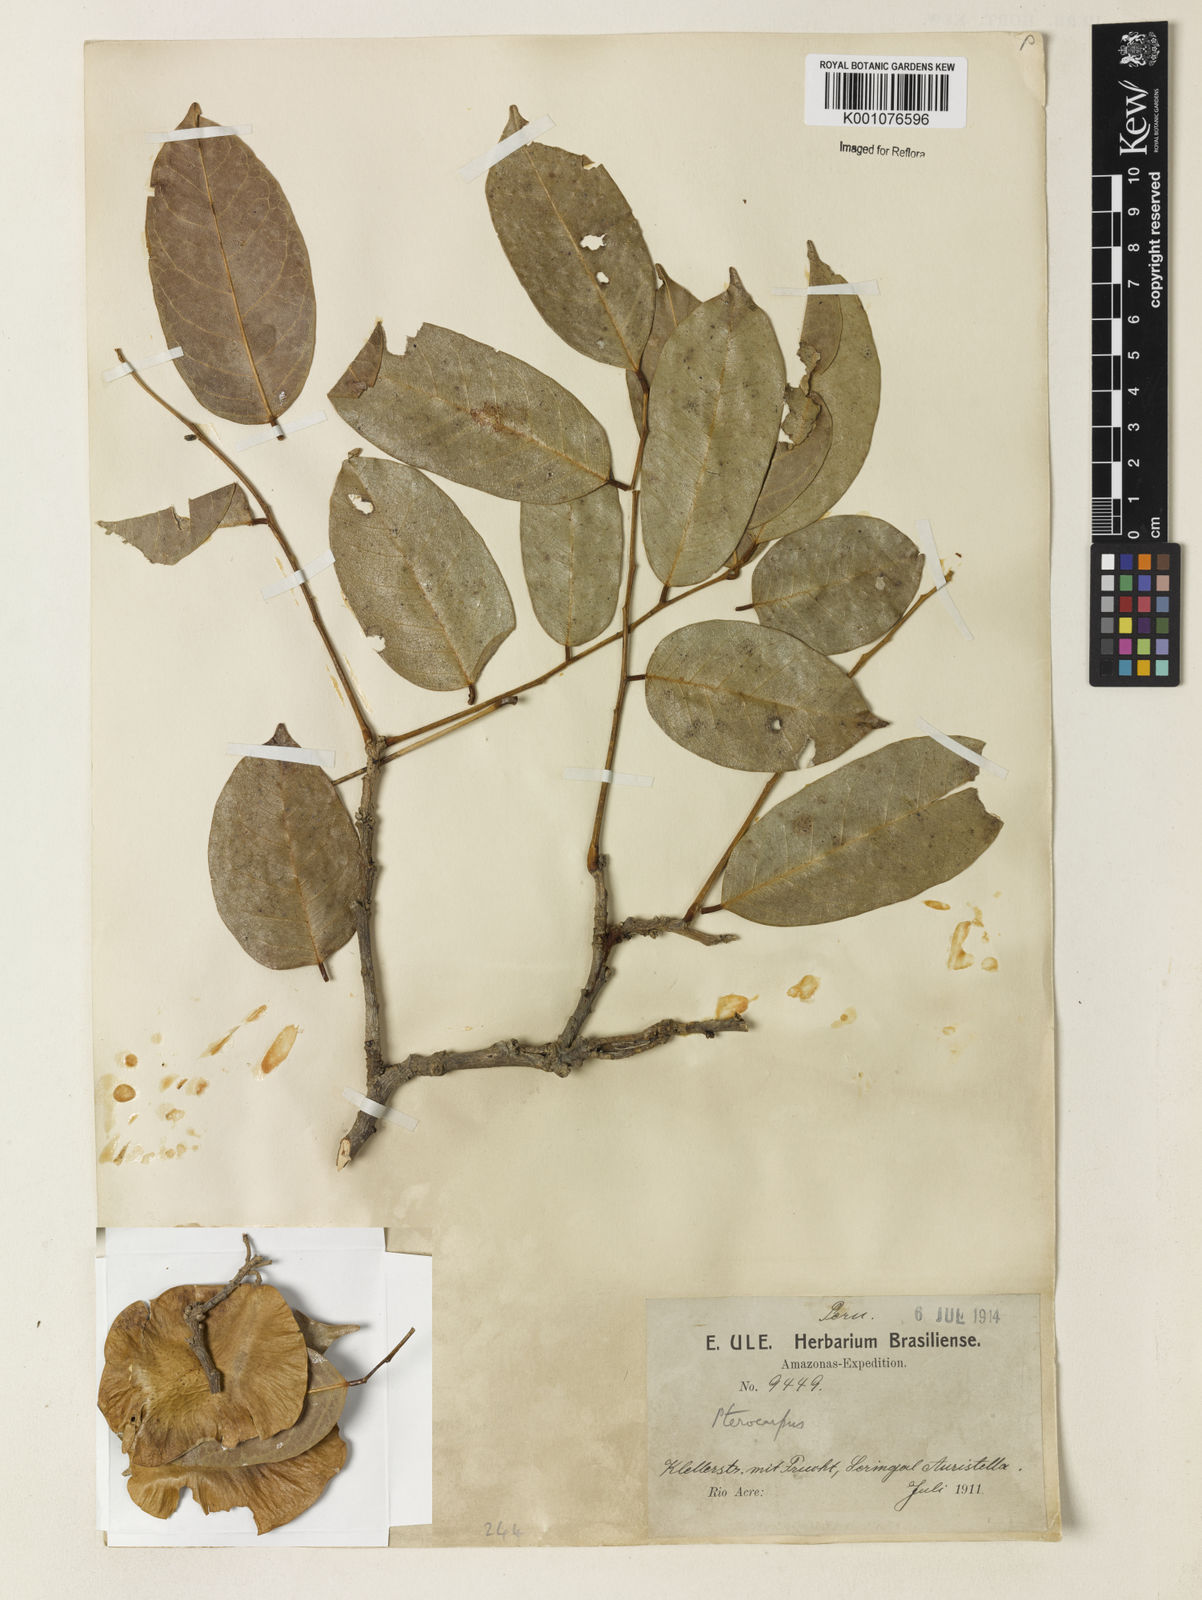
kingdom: Plantae
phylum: Tracheophyta
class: Magnoliopsida
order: Fabales
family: Fabaceae
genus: Pterocarpus
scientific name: Pterocarpus santalinoides
